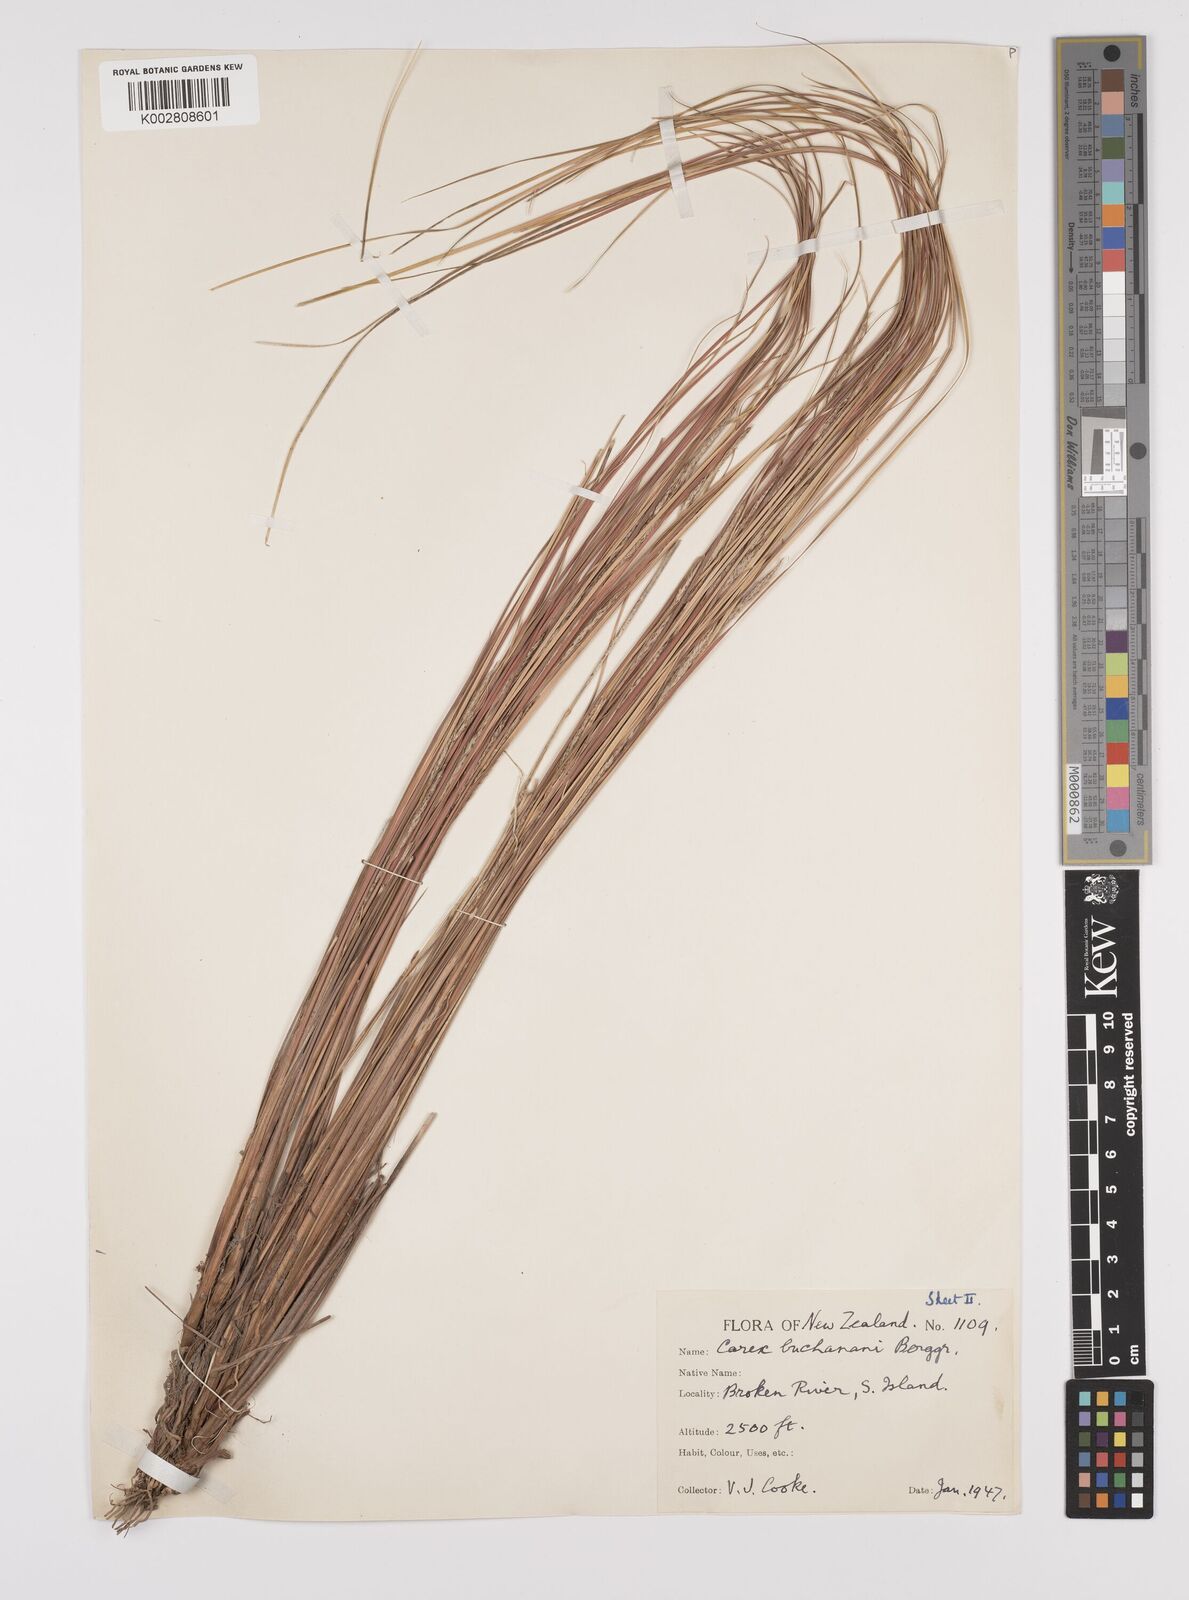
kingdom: Plantae
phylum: Tracheophyta
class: Liliopsida
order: Poales
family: Cyperaceae
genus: Carex
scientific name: Carex flagellifera
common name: Glen murray tussock
